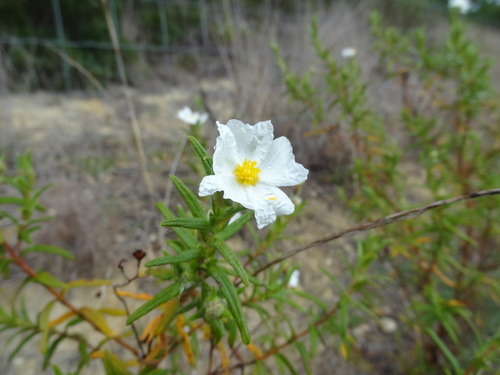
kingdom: Plantae
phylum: Tracheophyta
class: Magnoliopsida
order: Malvales
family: Cistaceae
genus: Cistus
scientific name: Cistus monspeliensis
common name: Montpelier cistus
